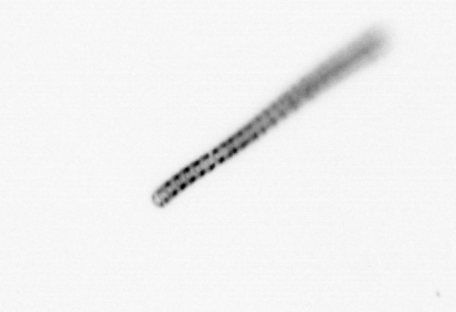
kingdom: Chromista
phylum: Ochrophyta
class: Bacillariophyceae
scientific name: Bacillariophyceae
